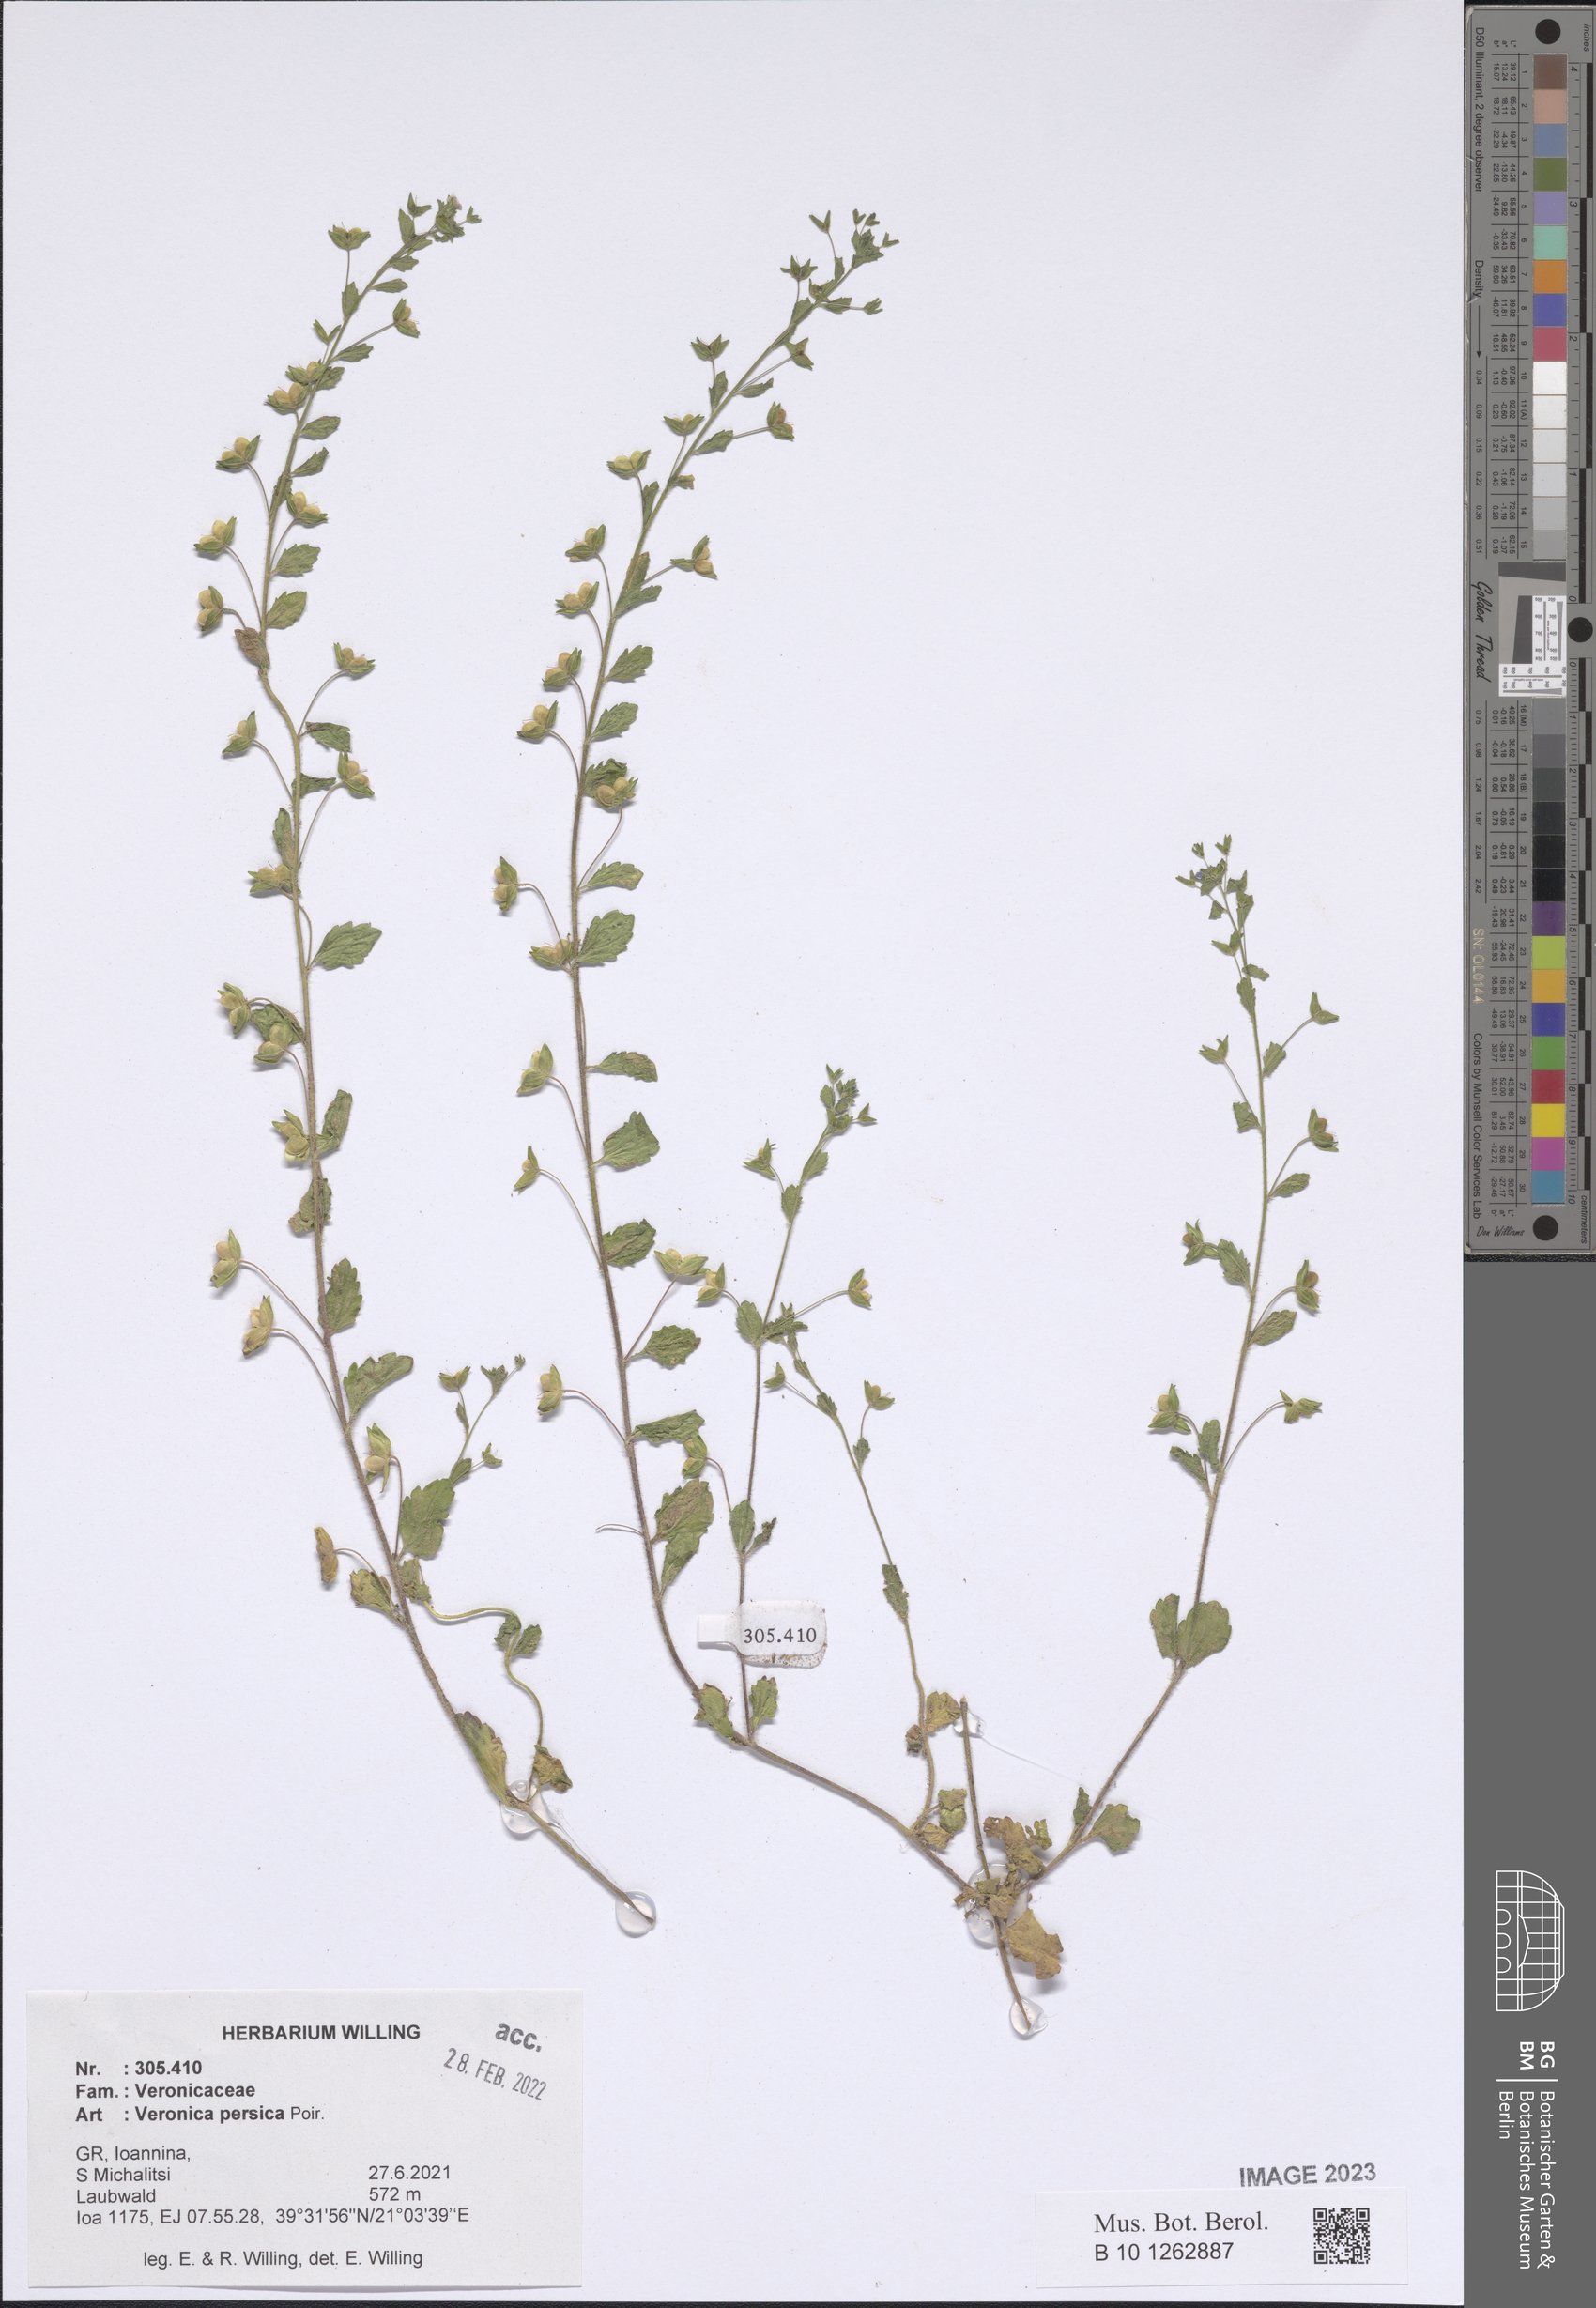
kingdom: Plantae
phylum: Tracheophyta
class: Magnoliopsida
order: Lamiales
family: Plantaginaceae
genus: Veronica
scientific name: Veronica persica
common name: Common field-speedwell
